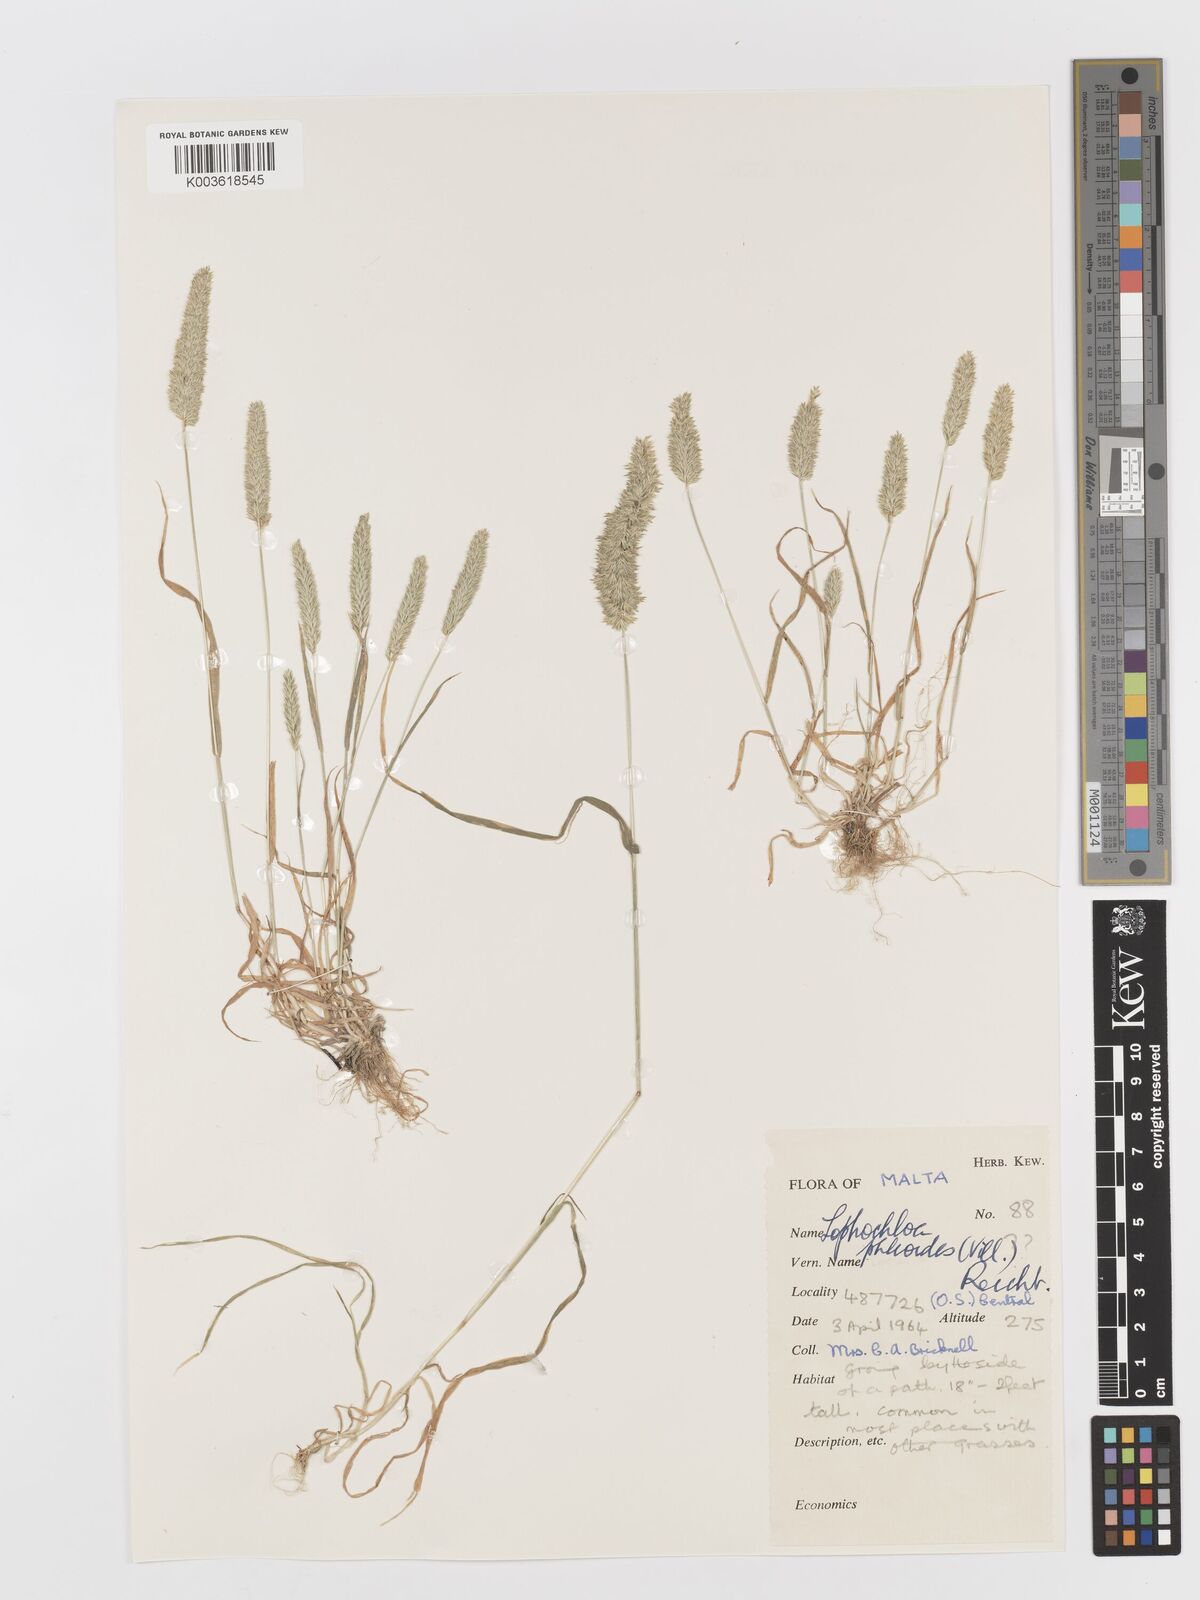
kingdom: Plantae
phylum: Tracheophyta
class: Liliopsida
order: Poales
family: Poaceae
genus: Rostraria
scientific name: Rostraria cristata
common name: Mediterranean hair-grass
